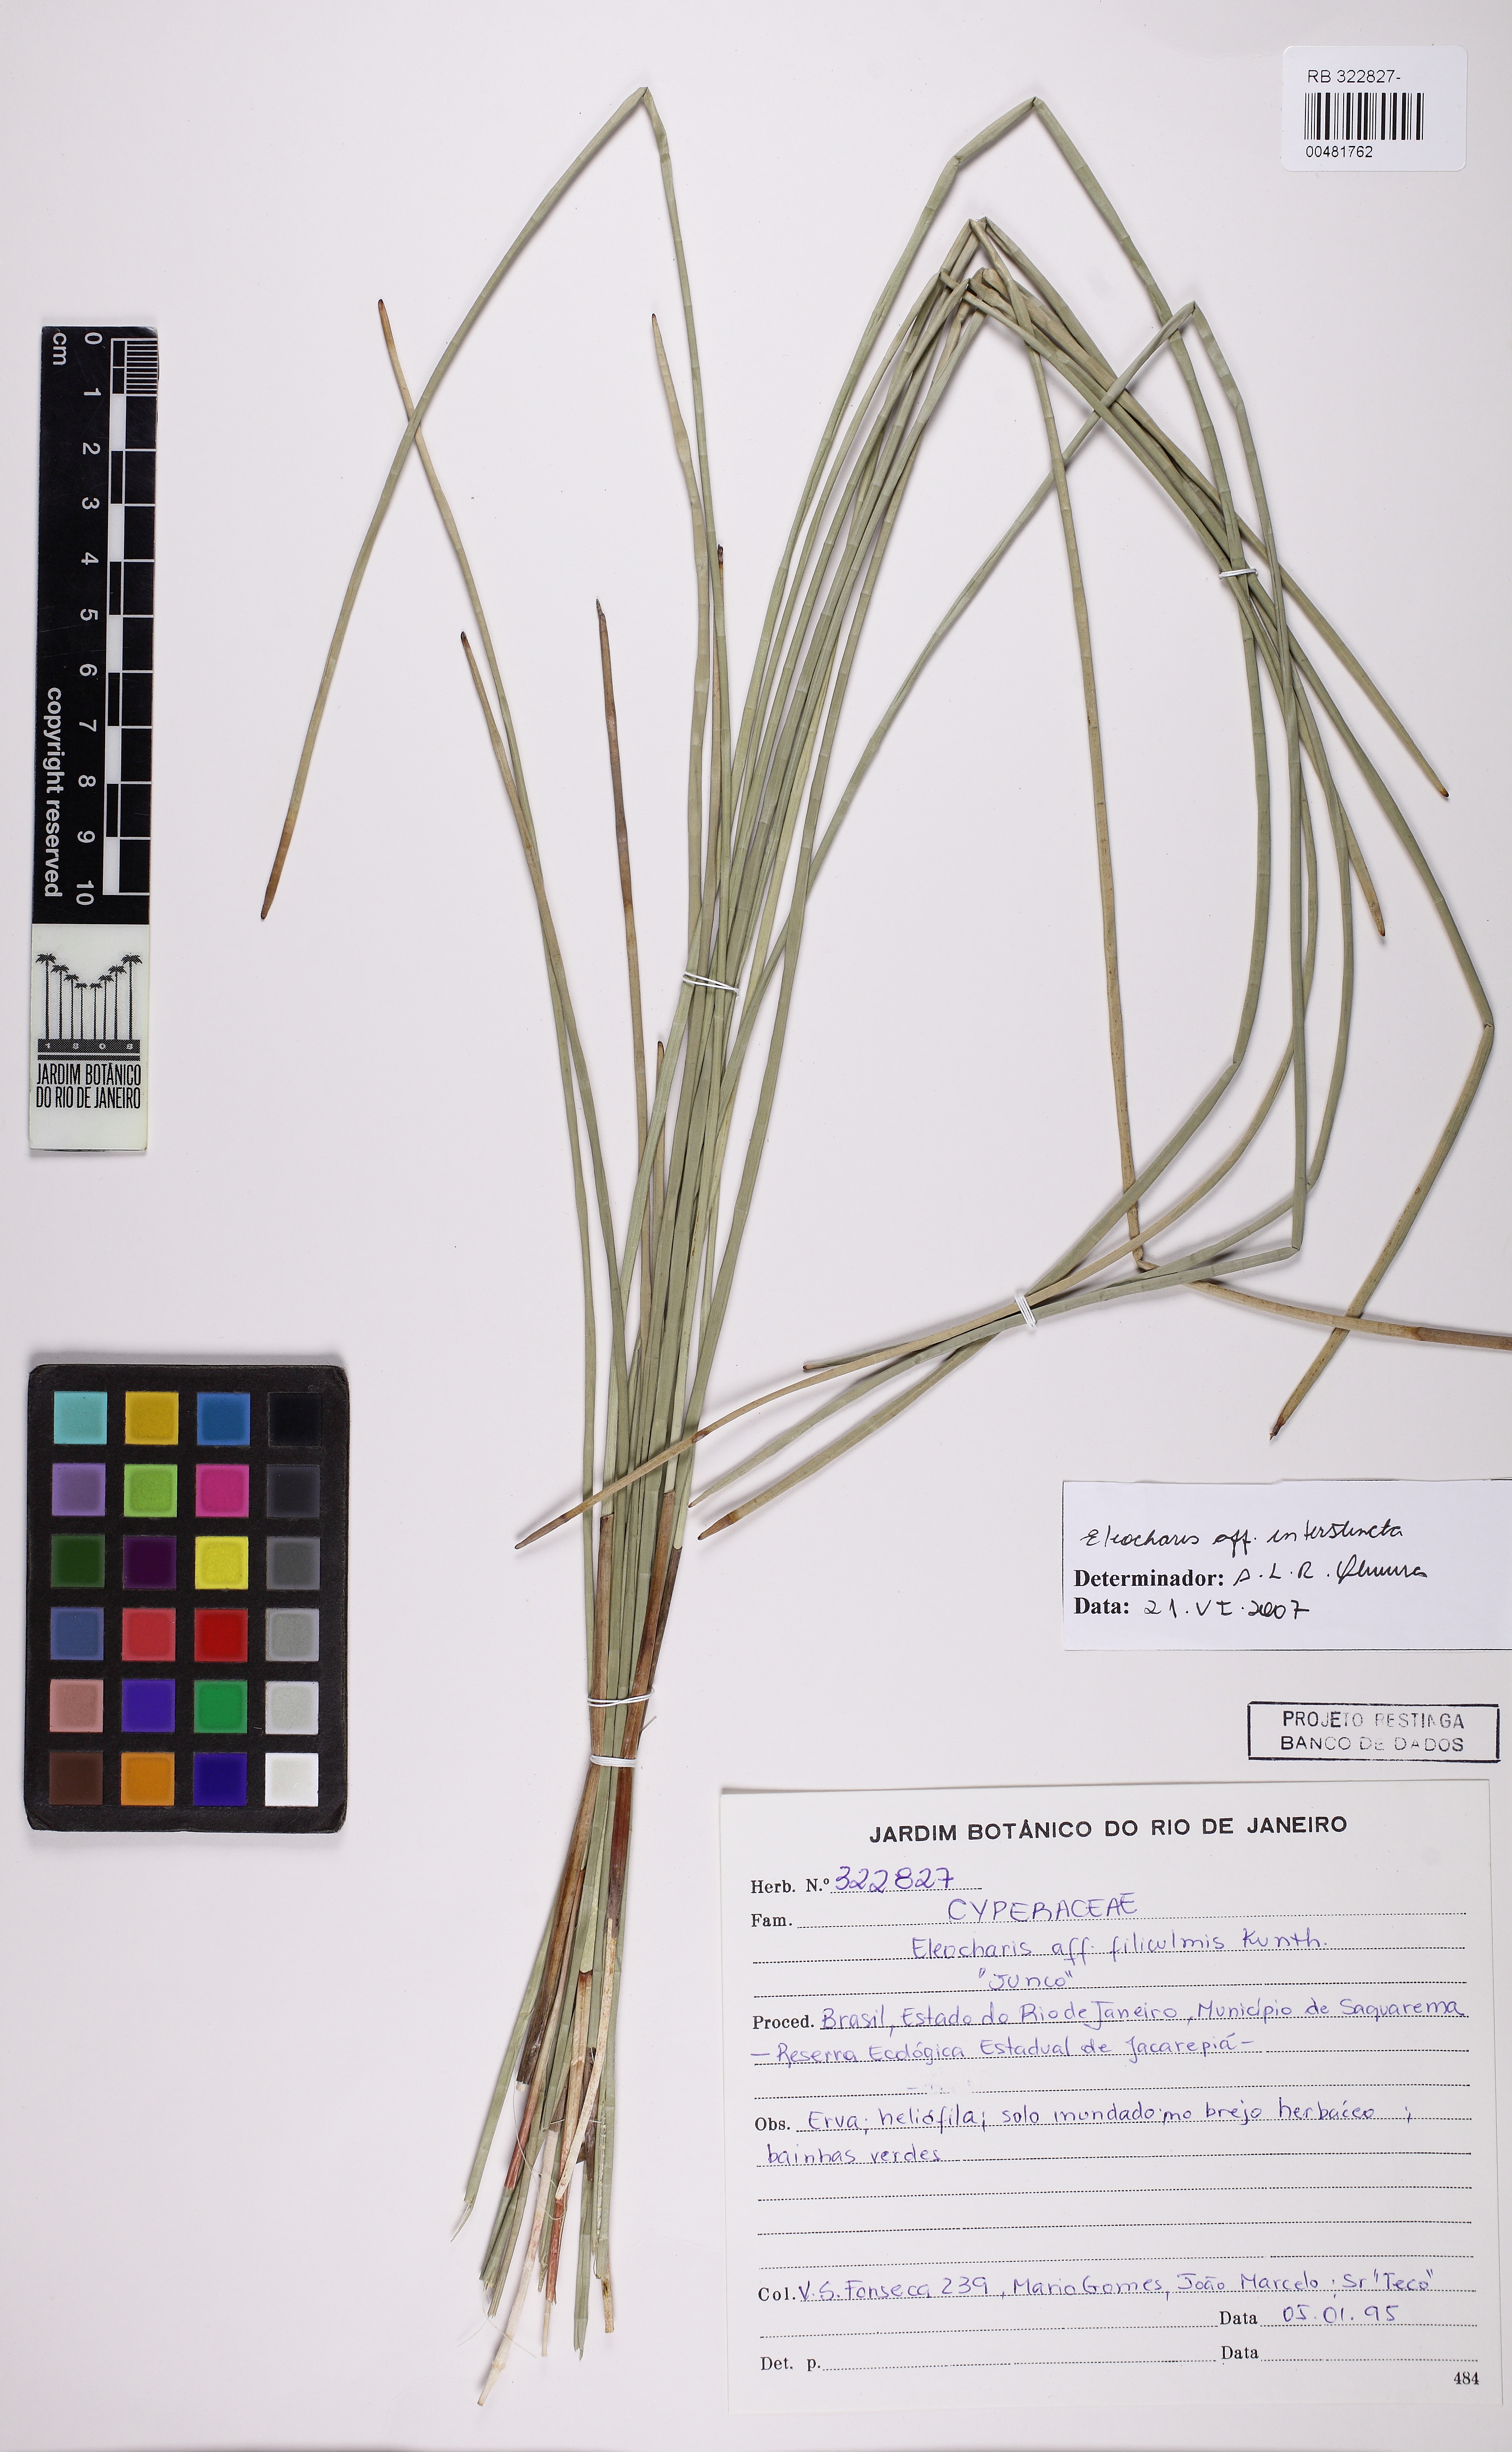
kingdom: Plantae
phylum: Tracheophyta
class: Liliopsida
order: Poales
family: Cyperaceae
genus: Eleocharis
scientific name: Eleocharis interstincta
